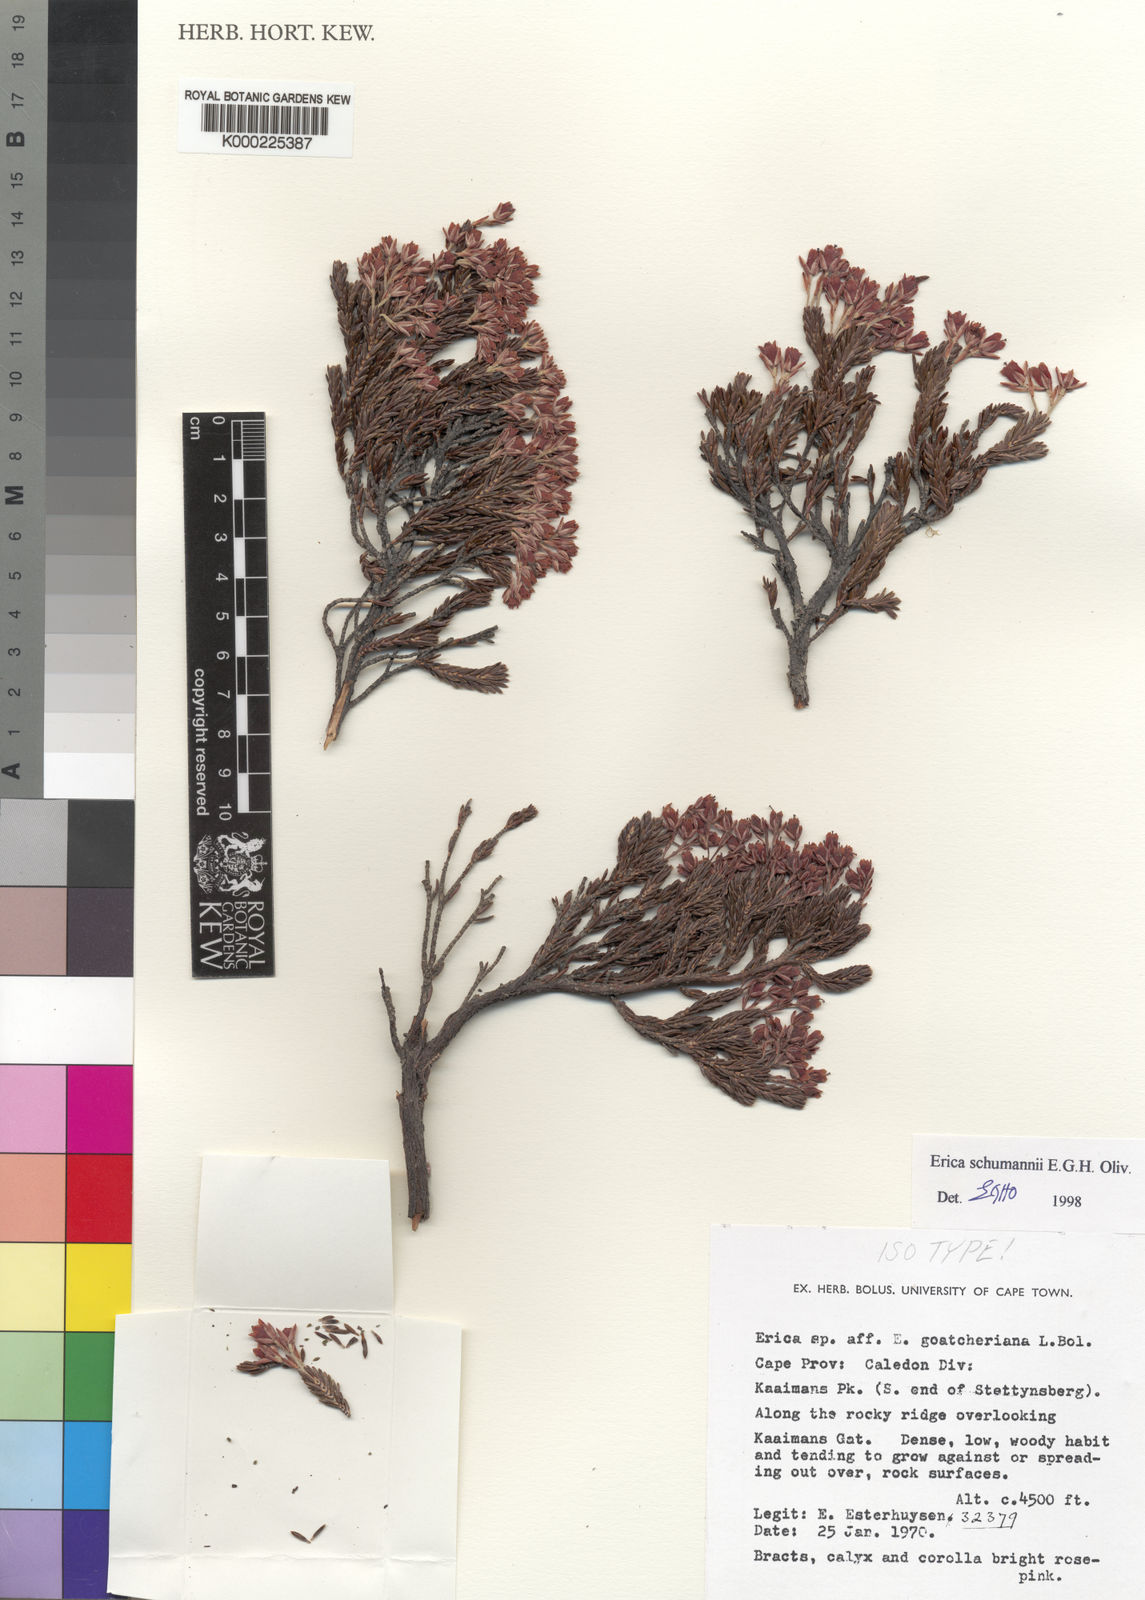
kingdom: Plantae
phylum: Tracheophyta
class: Magnoliopsida
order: Ericales
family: Ericaceae
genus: Erica
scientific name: Erica schumannii
